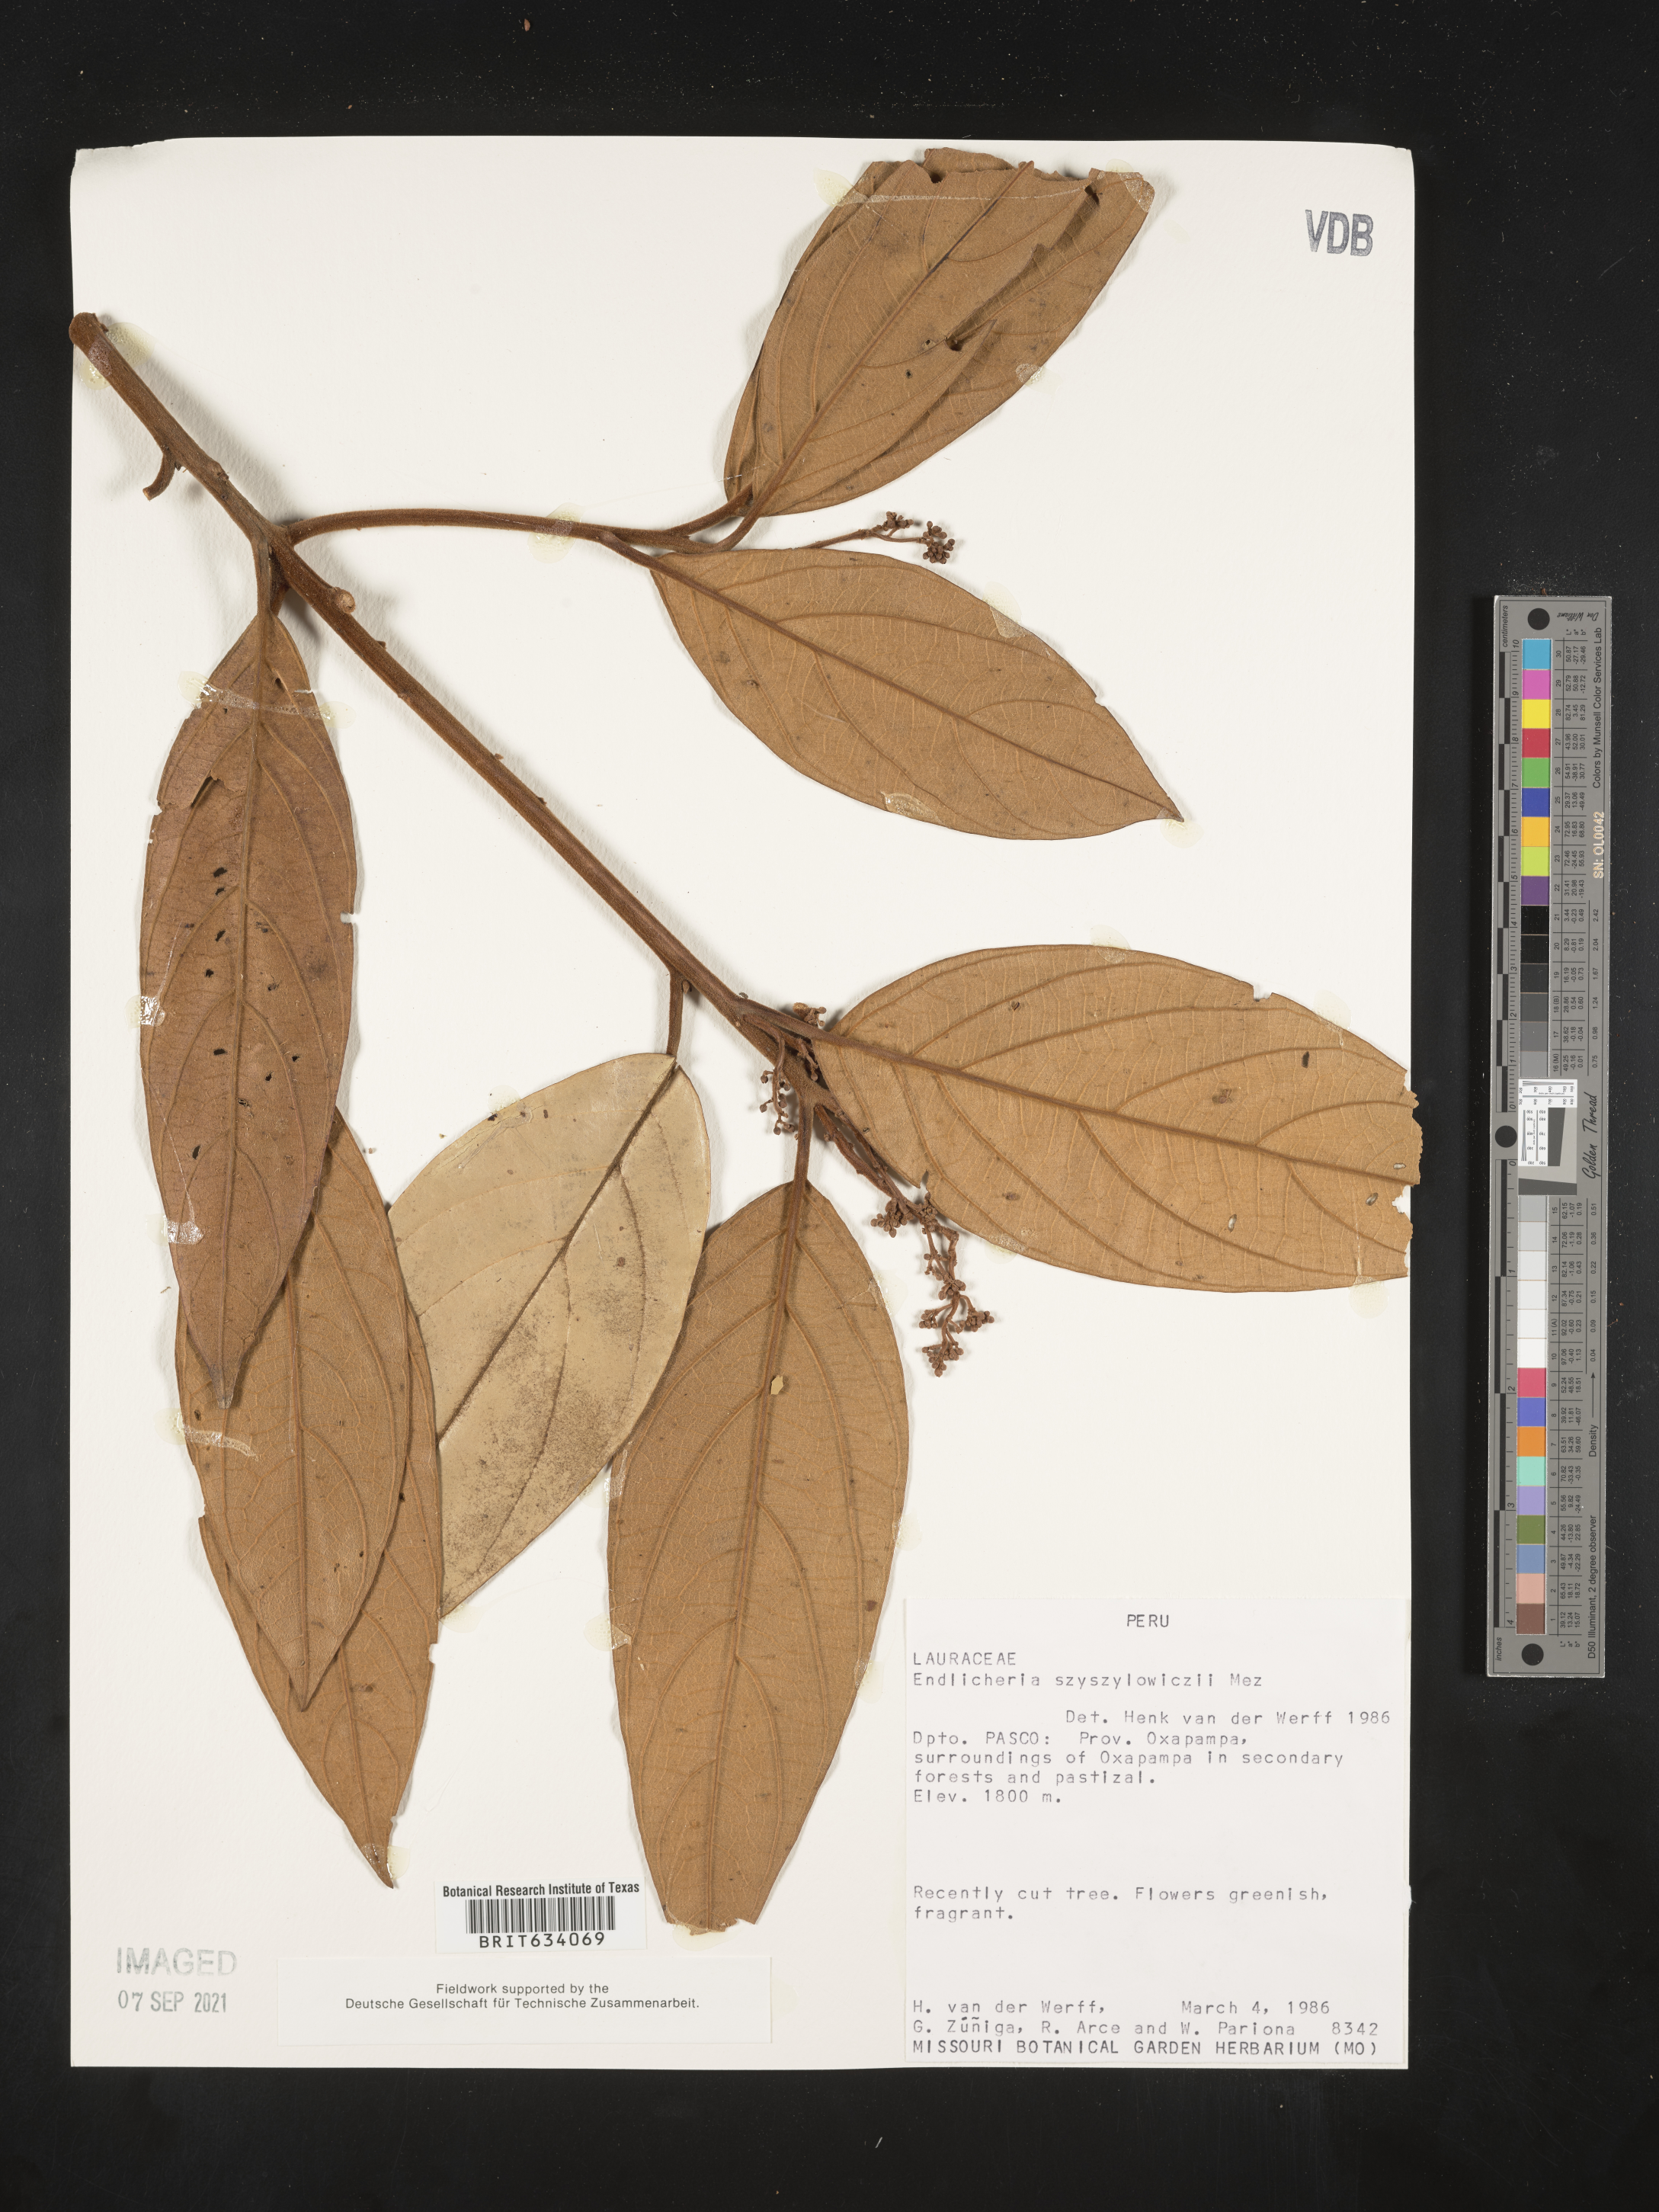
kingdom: Plantae
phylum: Tracheophyta
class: Magnoliopsida
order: Laurales
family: Lauraceae
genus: Endlicheria
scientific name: Endlicheria
